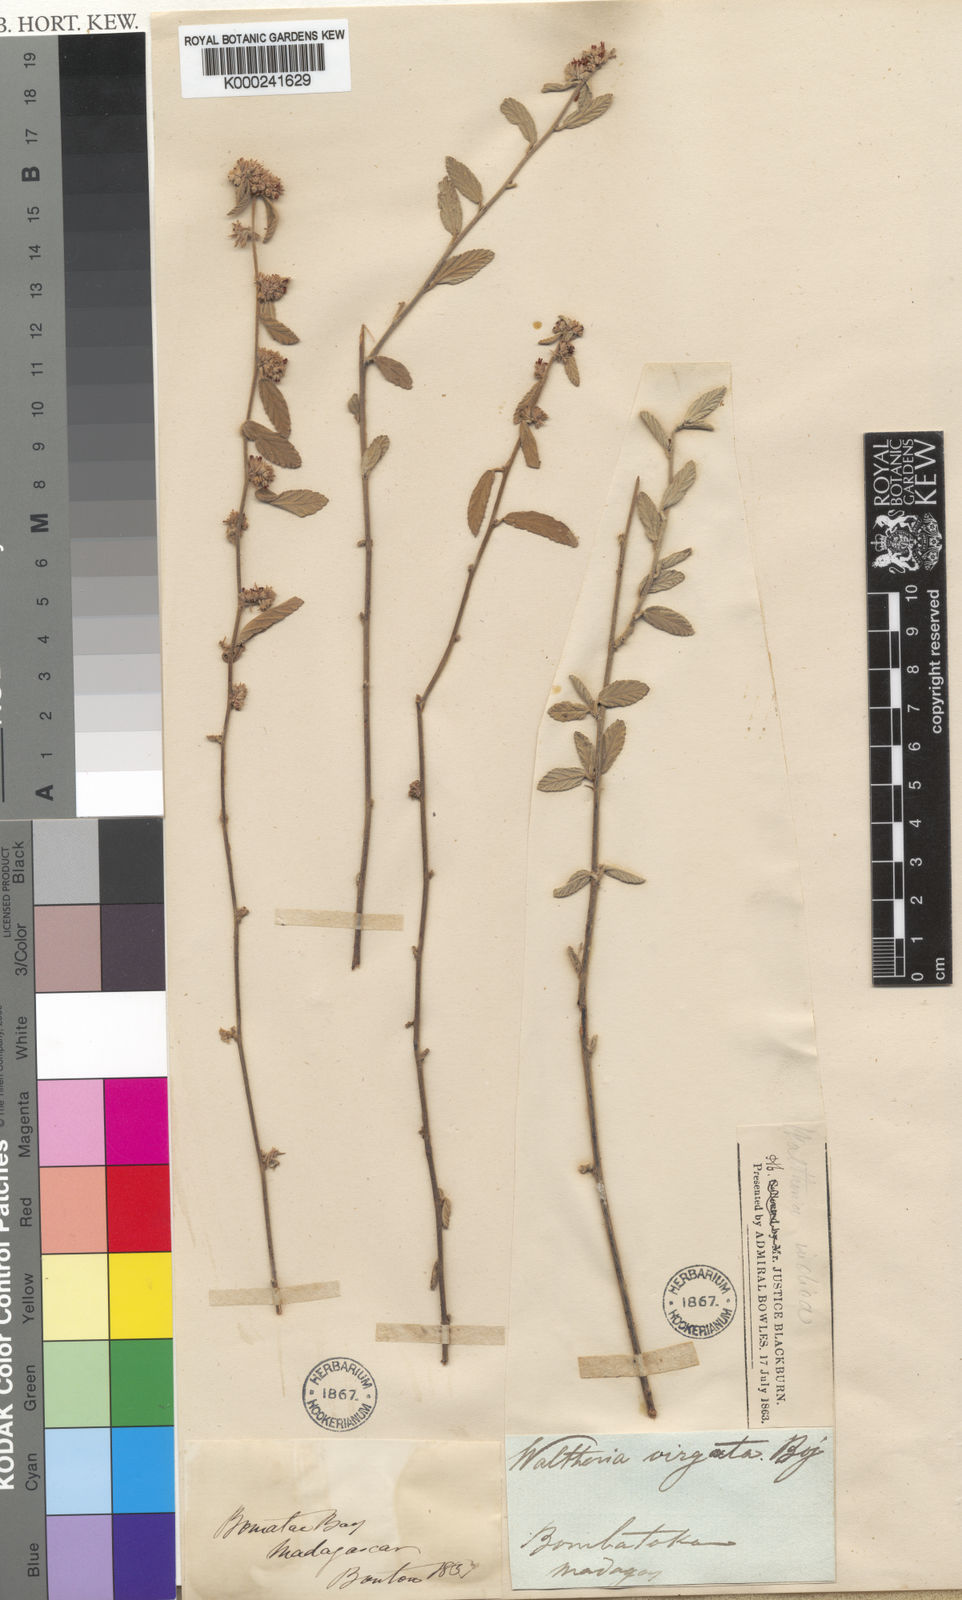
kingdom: Plantae
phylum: Tracheophyta
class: Magnoliopsida
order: Malvales
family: Malvaceae
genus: Waltheria
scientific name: Waltheria indica
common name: Leather-coat
